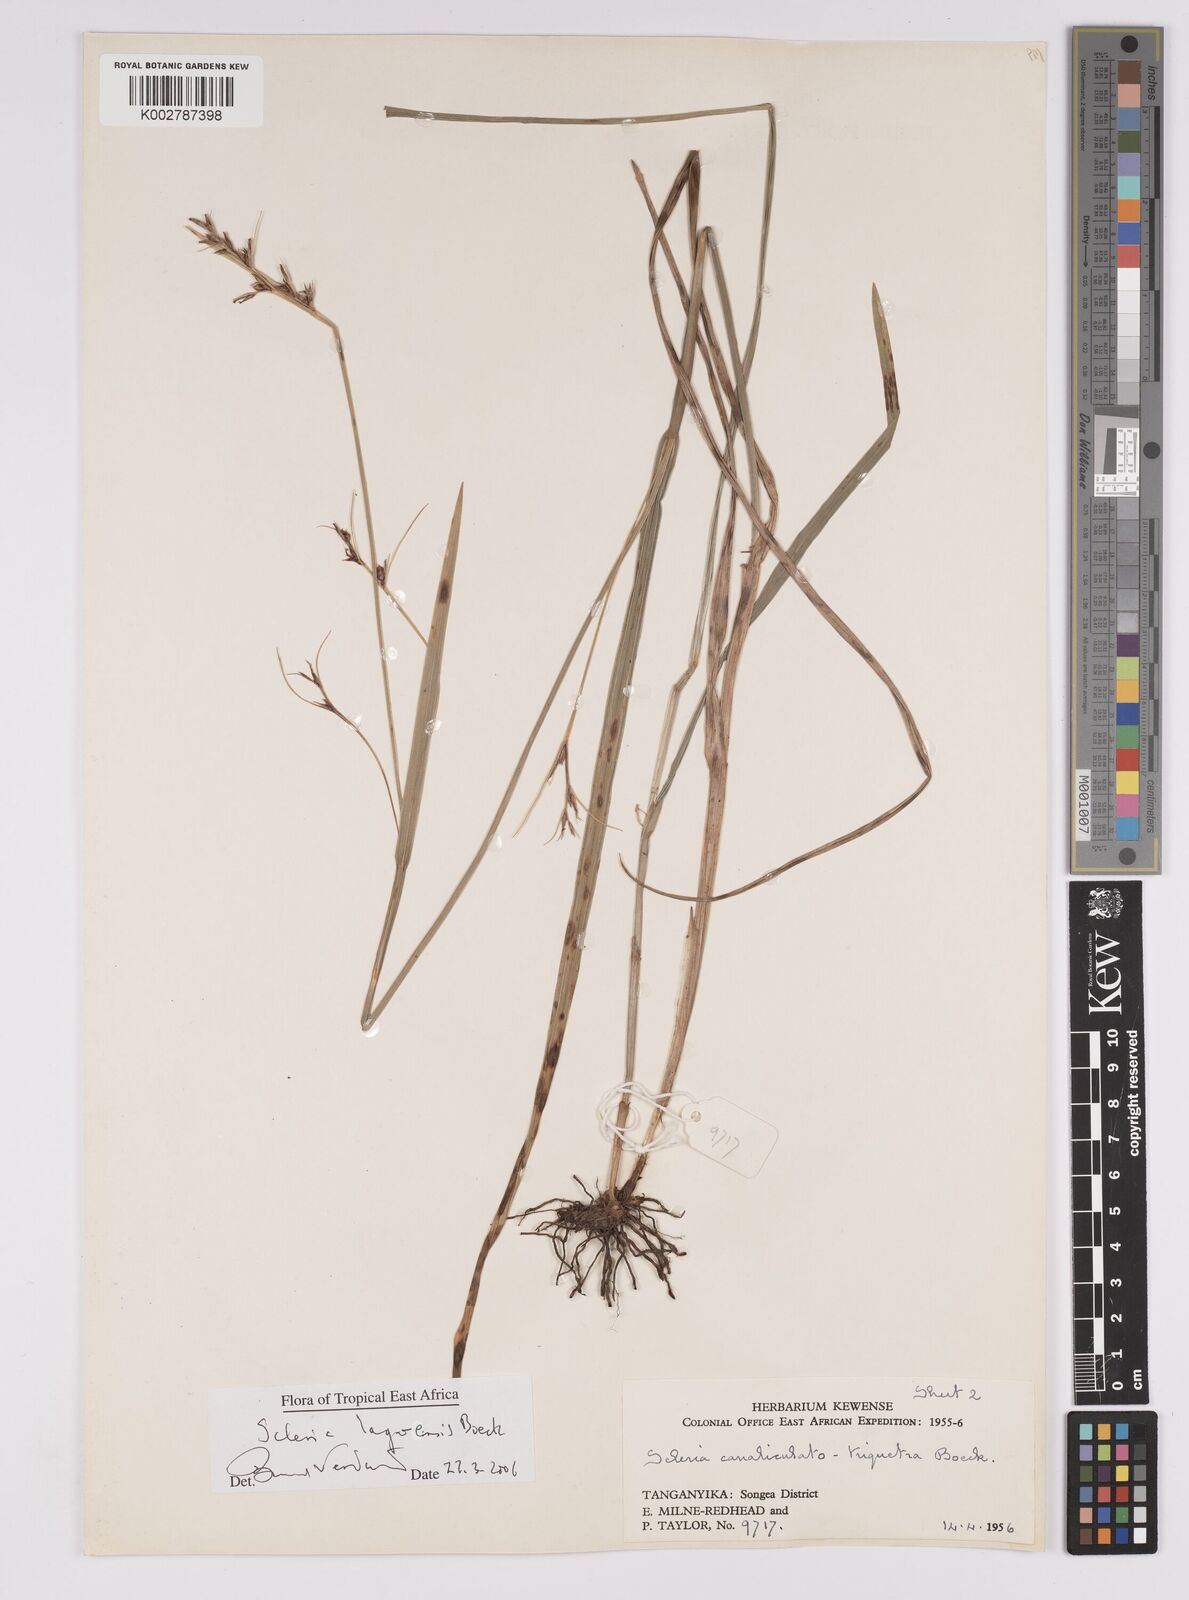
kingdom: Plantae
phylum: Tracheophyta
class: Liliopsida
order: Poales
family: Cyperaceae
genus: Scleria
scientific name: Scleria lagoensis
